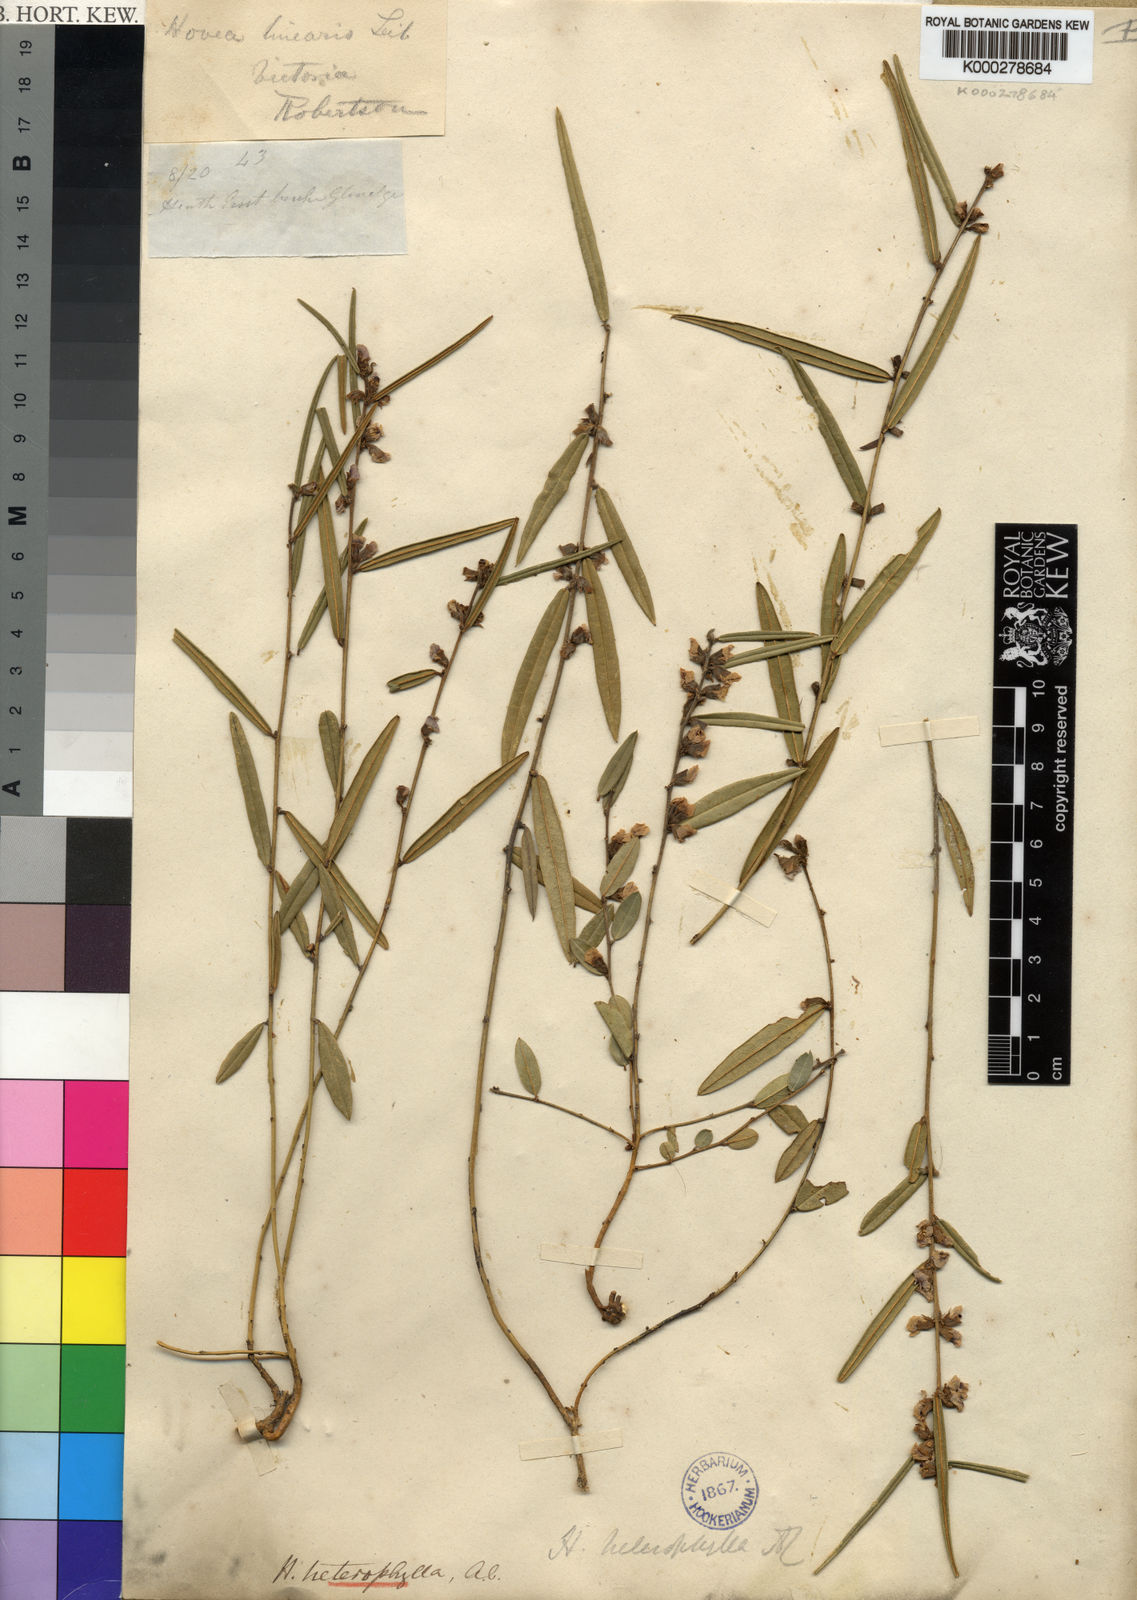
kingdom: Plantae
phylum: Tracheophyta
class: Magnoliopsida
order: Fabales
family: Fabaceae
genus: Hovea
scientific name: Hovea heterophylla
